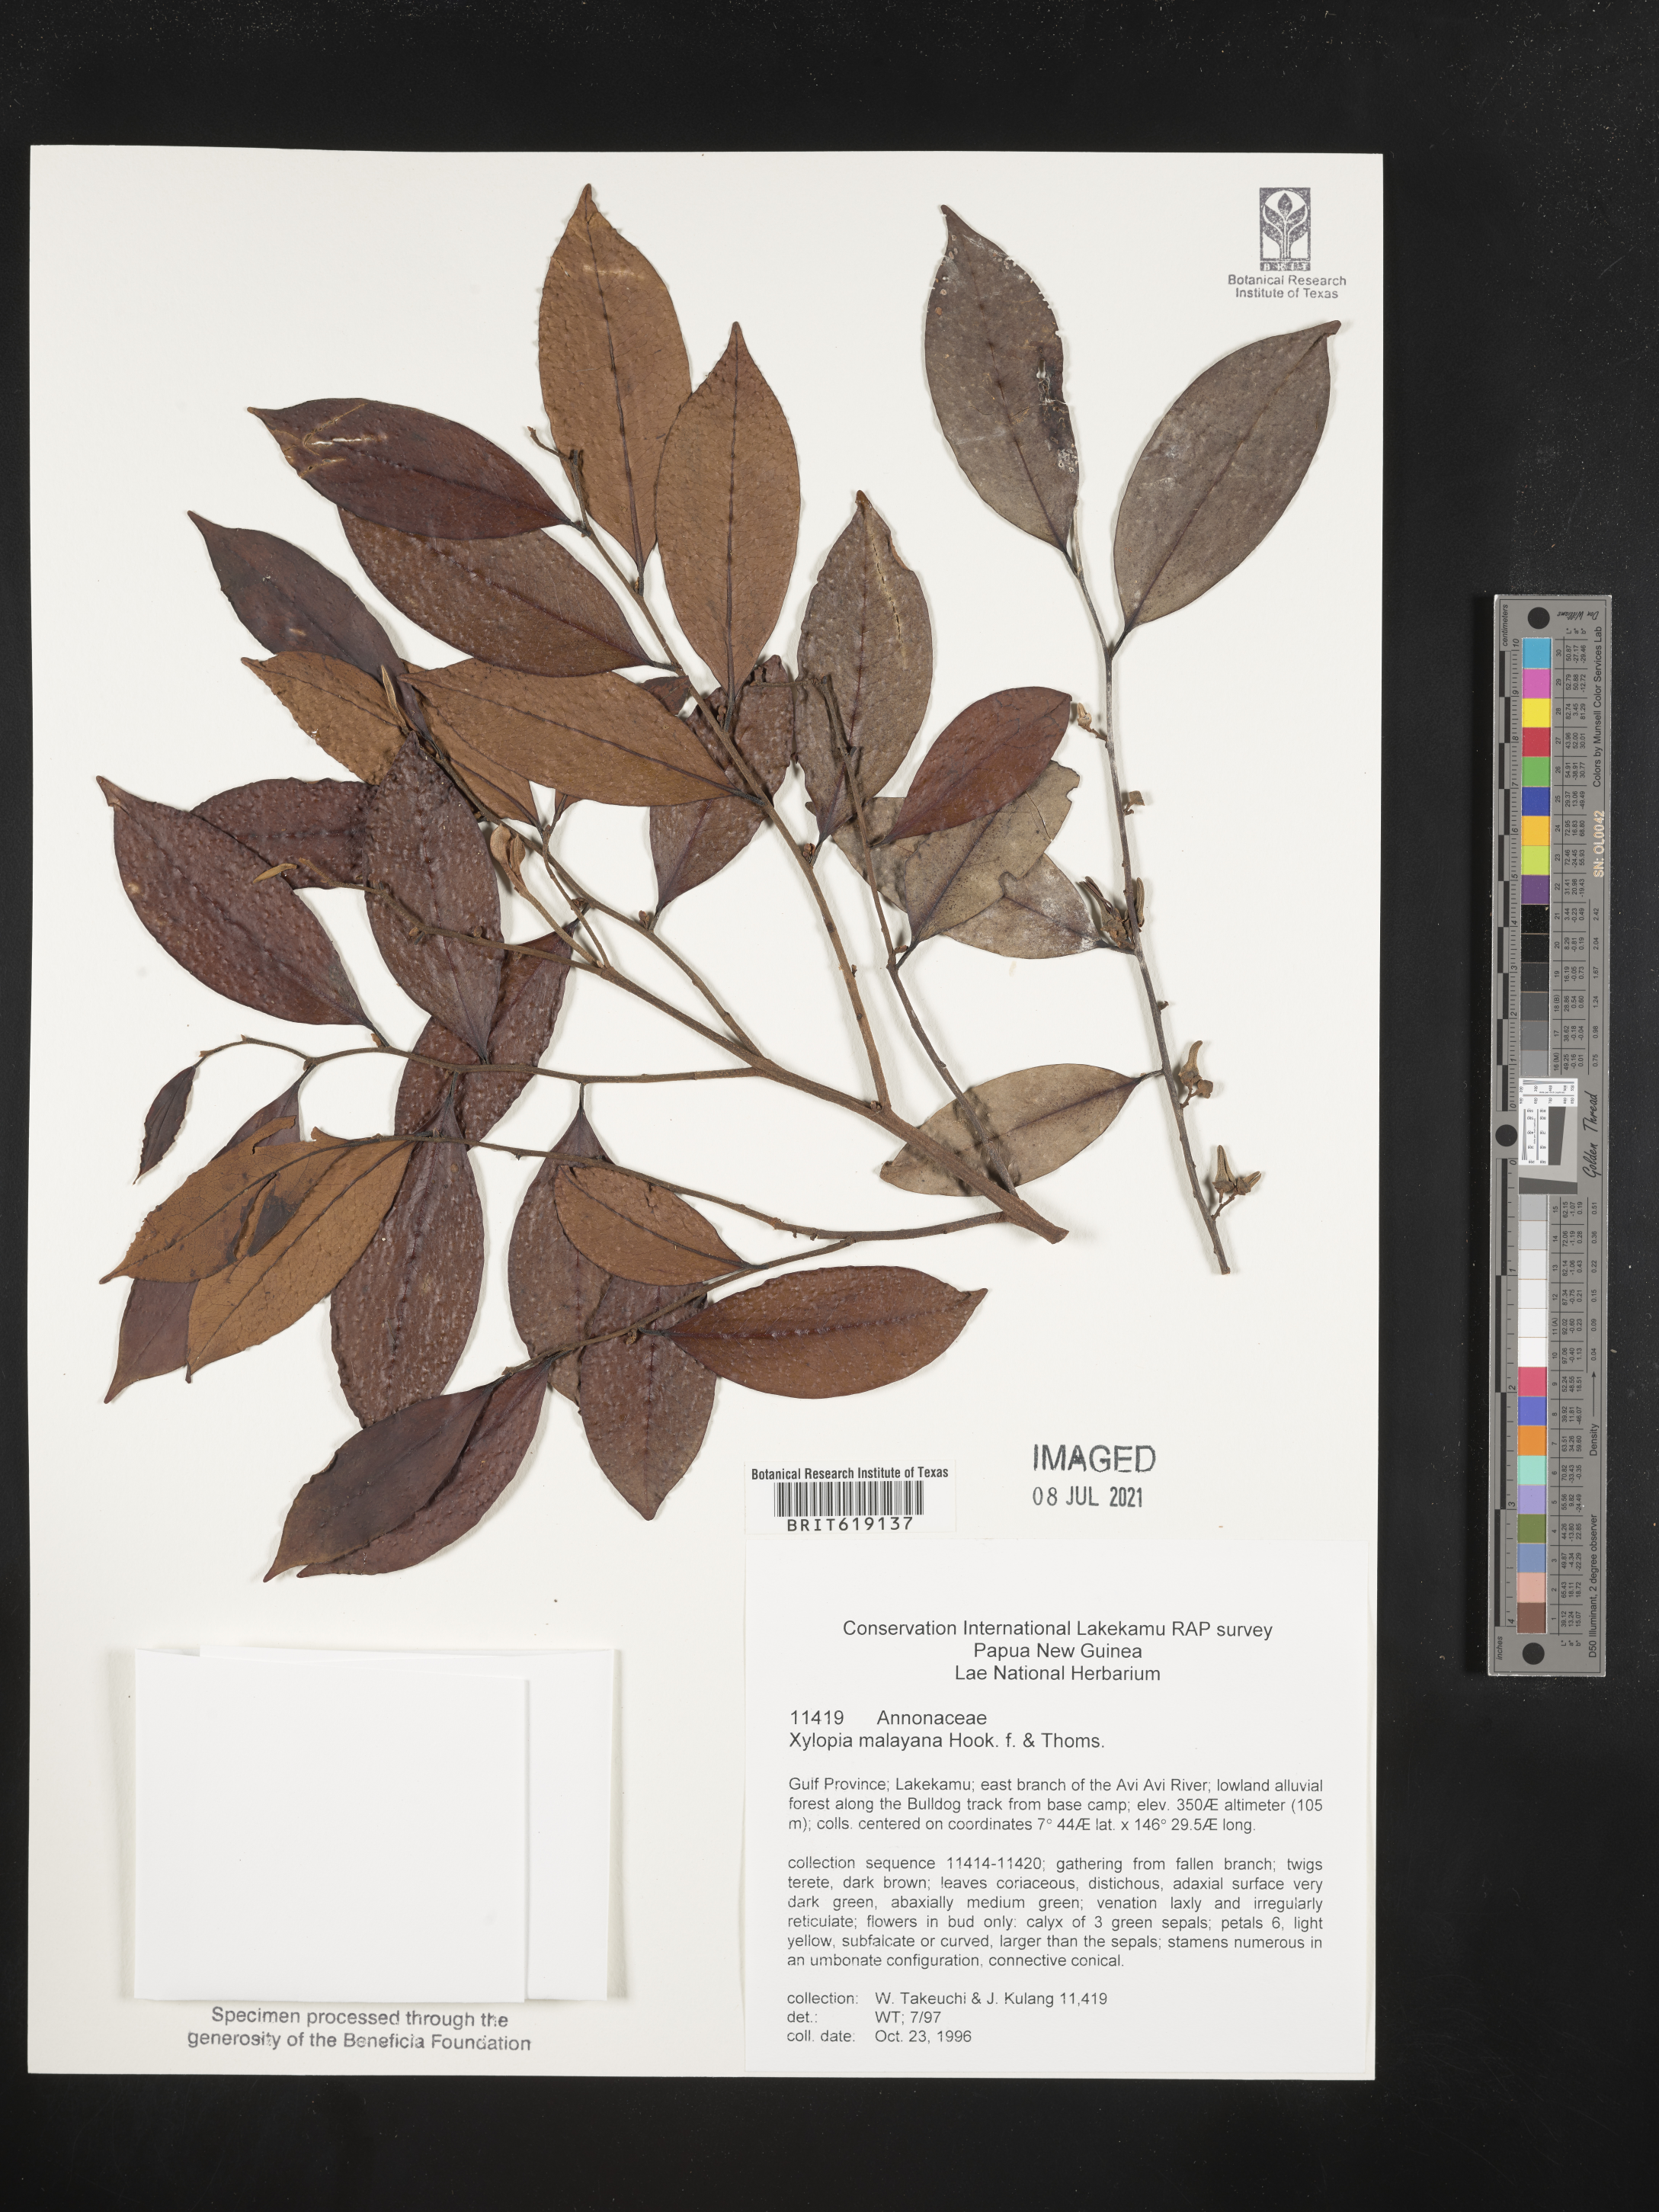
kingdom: Plantae
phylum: Tracheophyta
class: Magnoliopsida
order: Magnoliales
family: Annonaceae
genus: Xylopia
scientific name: Xylopia malayana
